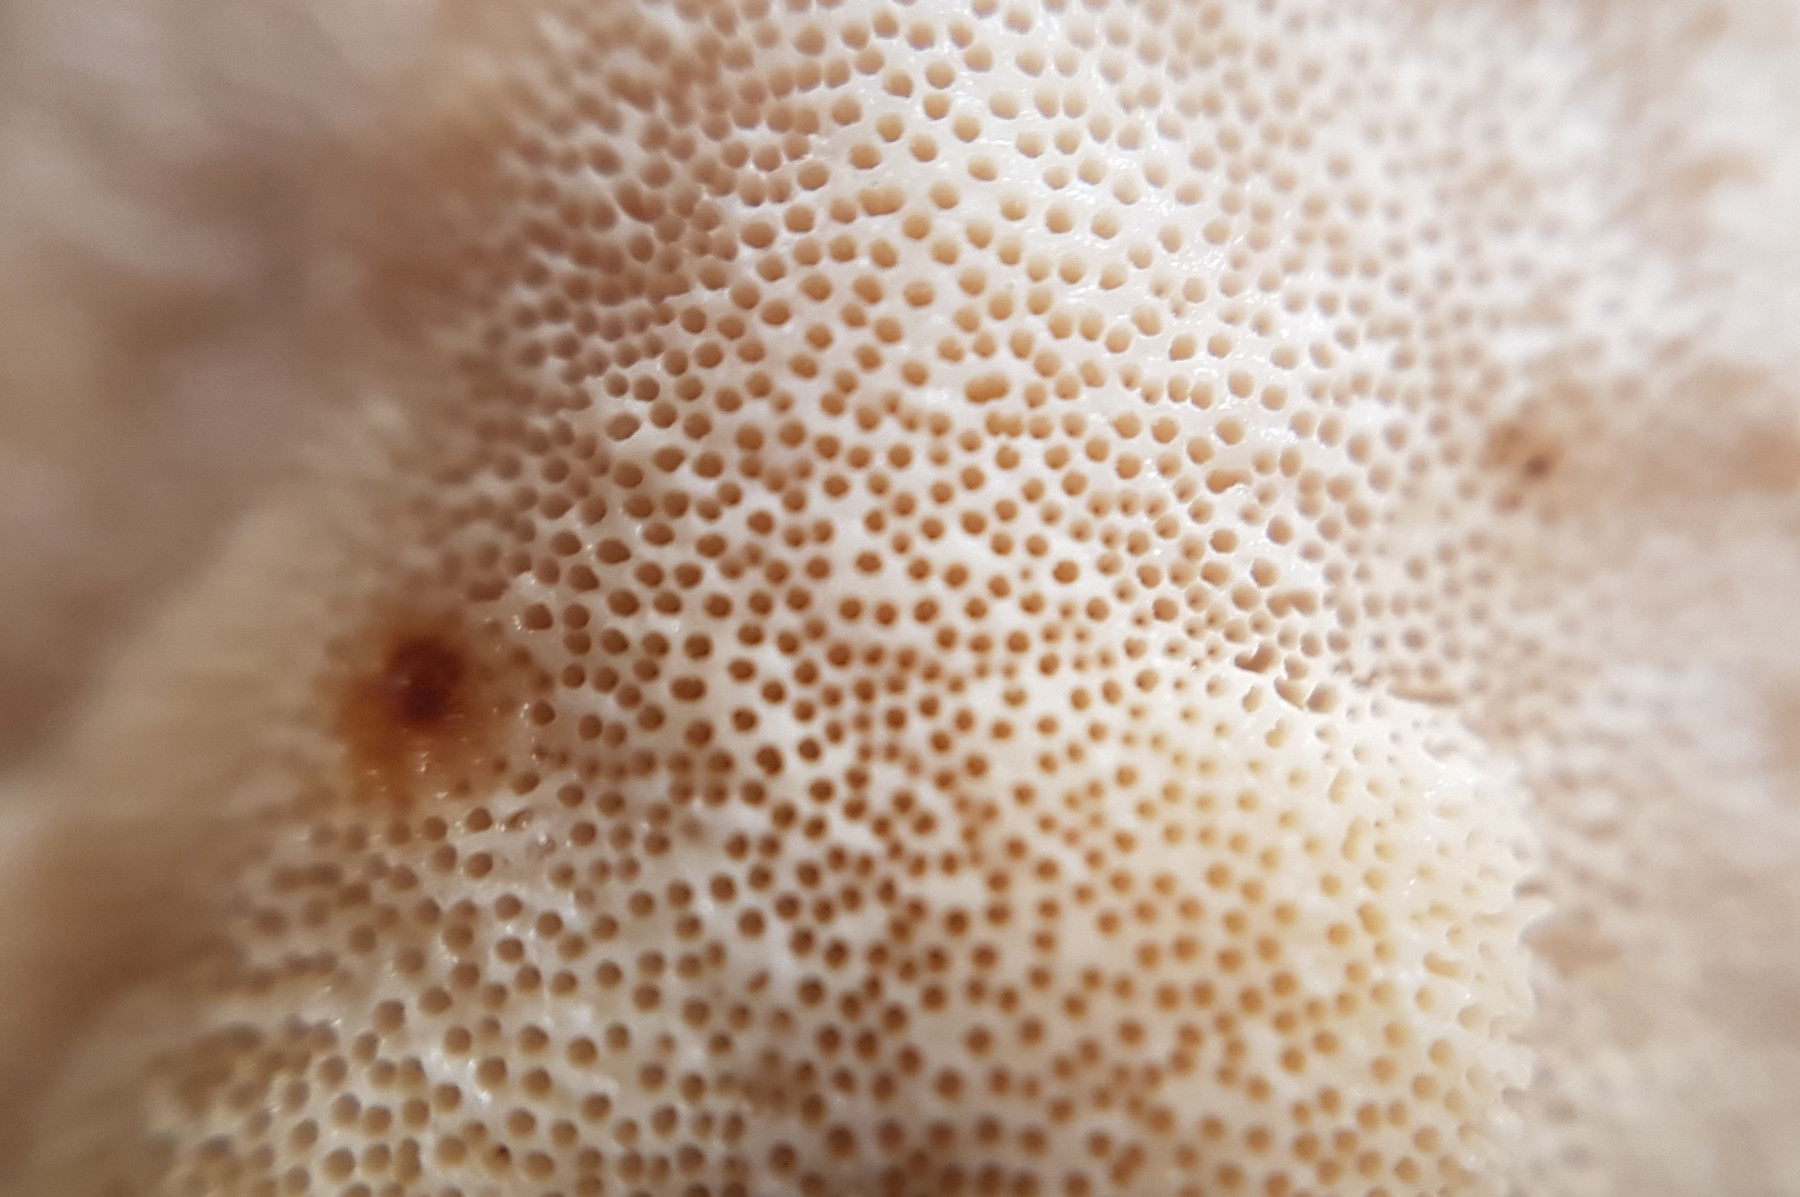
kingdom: Fungi
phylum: Basidiomycota
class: Agaricomycetes
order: Polyporales
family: Polyporaceae
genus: Trametes
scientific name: Trametes versicolor
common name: broget læderporesvamp
